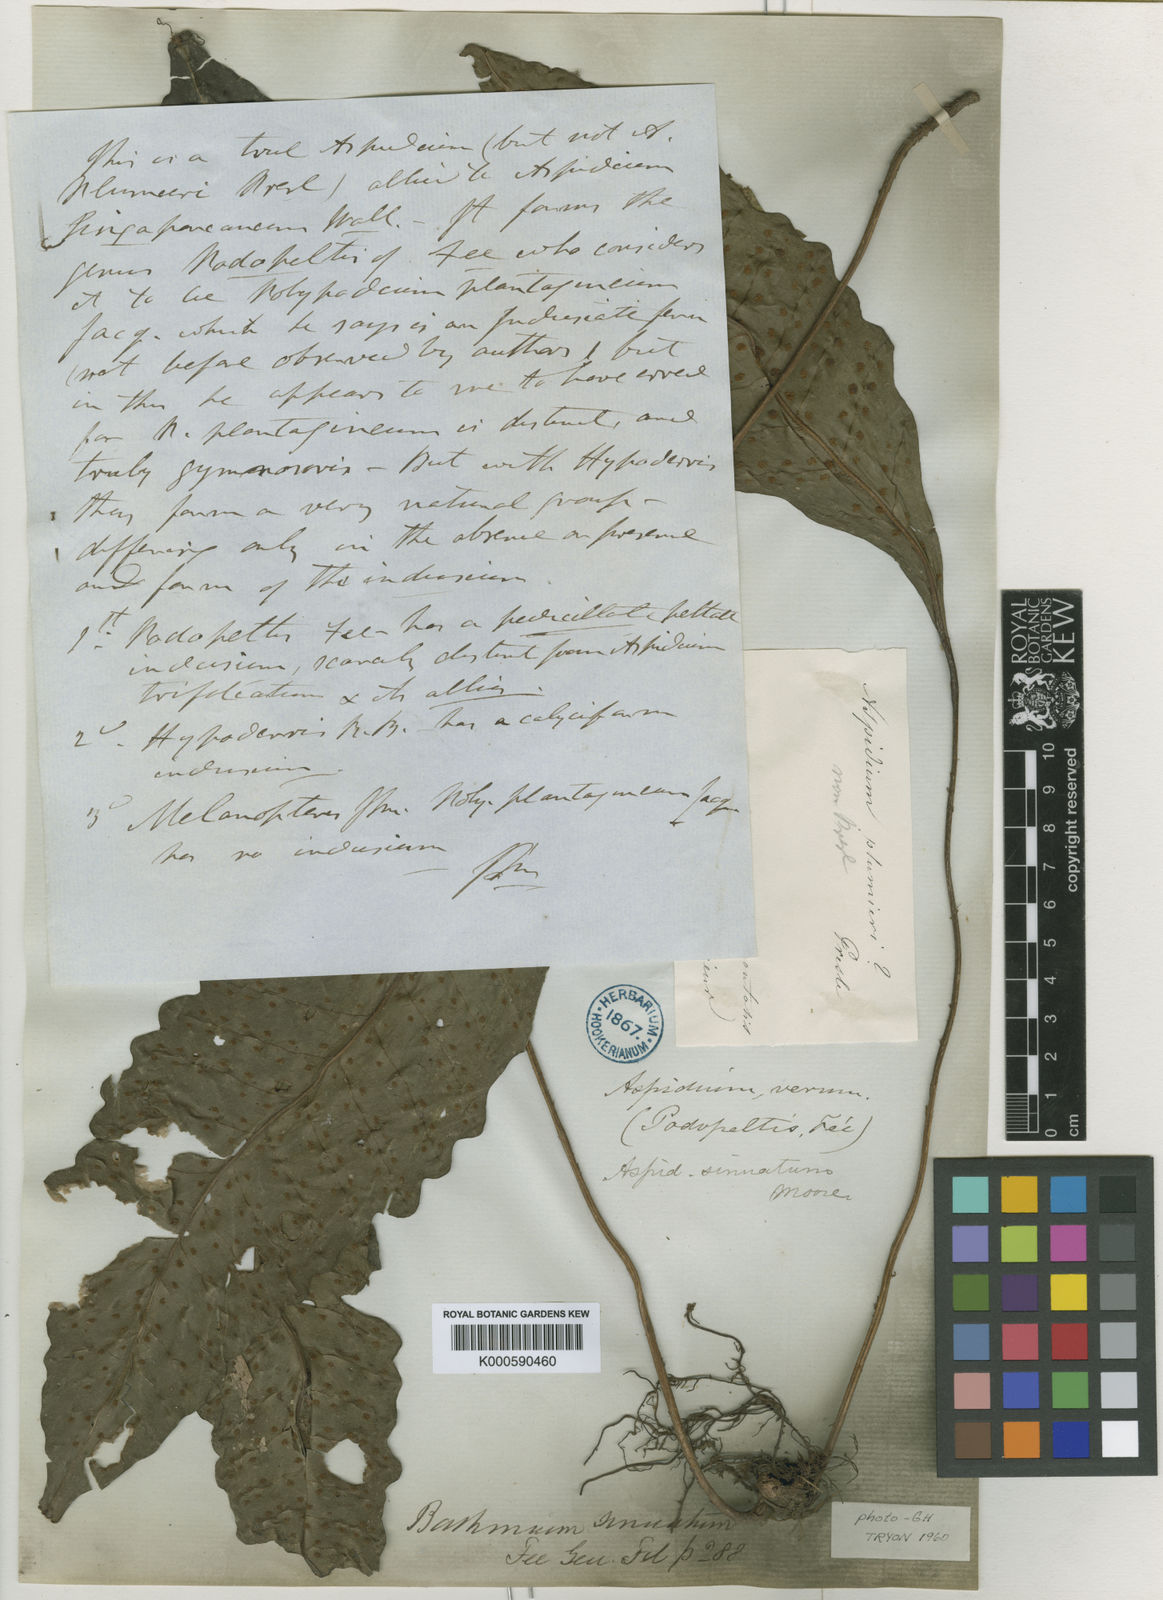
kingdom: Plantae
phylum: Tracheophyta
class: Polypodiopsida
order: Polypodiales
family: Lomariopsidaceae
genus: Dracoglossum
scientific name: Dracoglossum plantagineum
